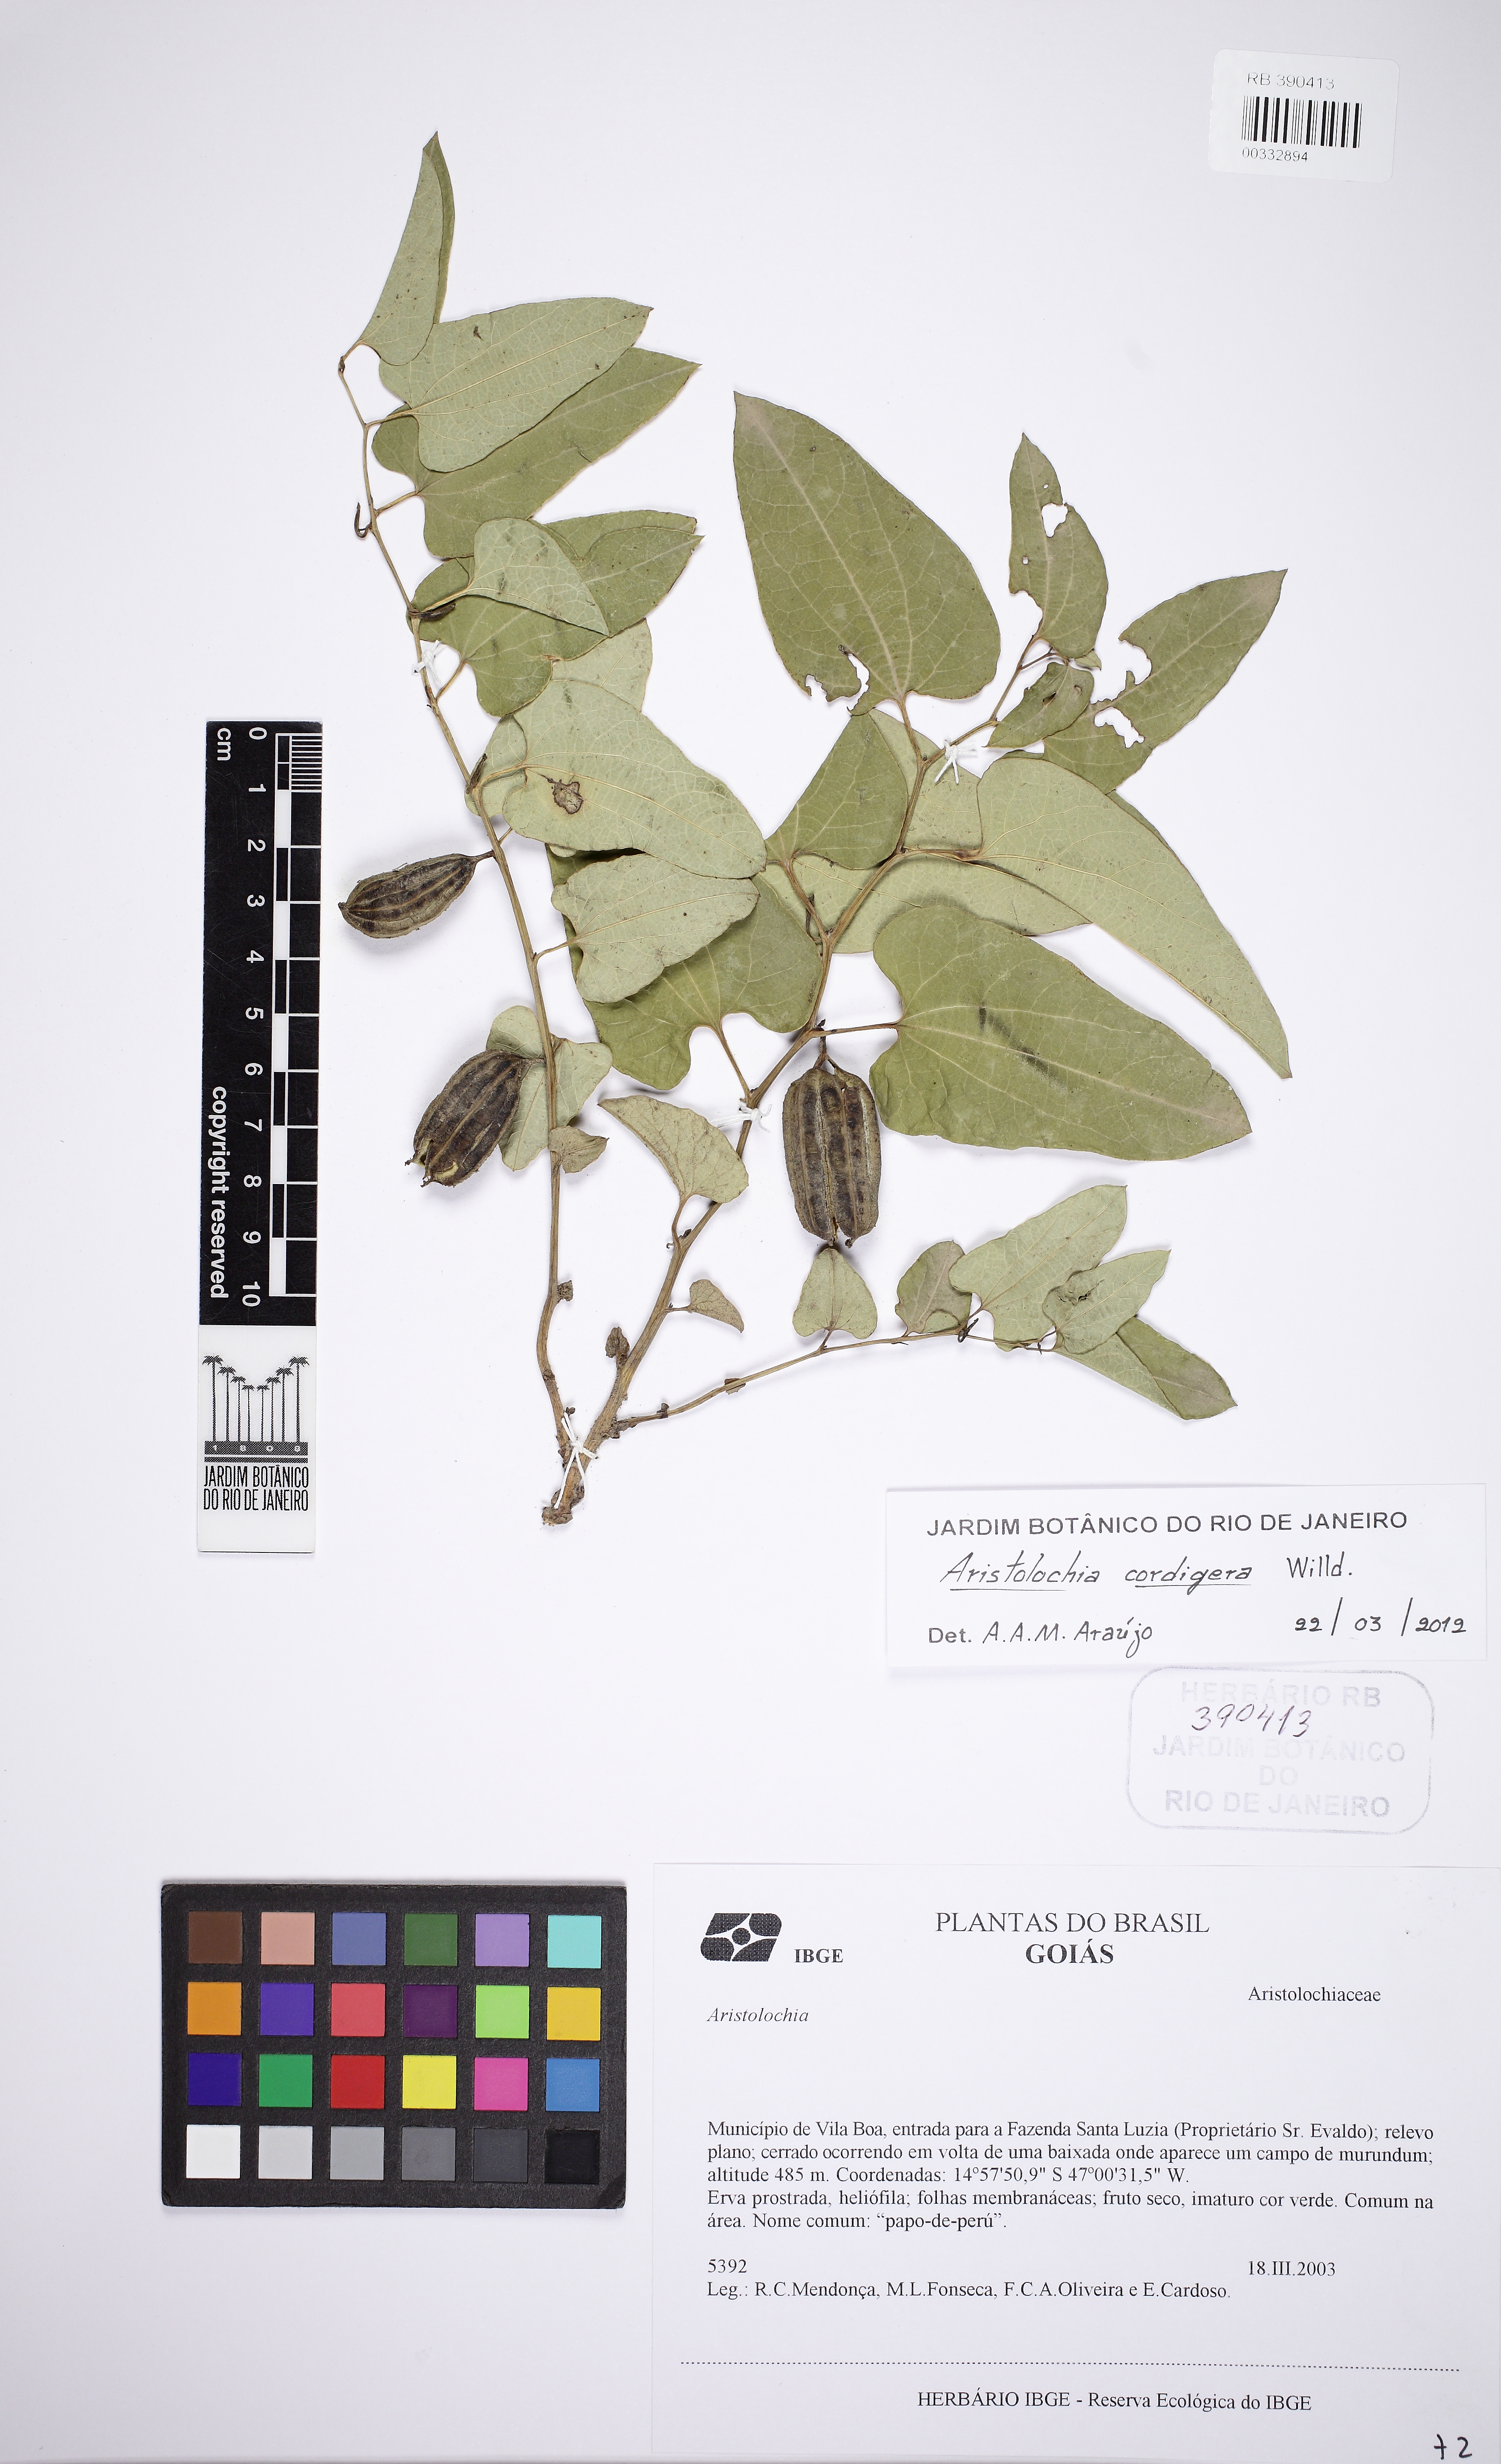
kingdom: Plantae
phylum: Tracheophyta
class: Magnoliopsida
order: Piperales
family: Aristolochiaceae
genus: Aristolochia
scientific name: Aristolochia cordigera
